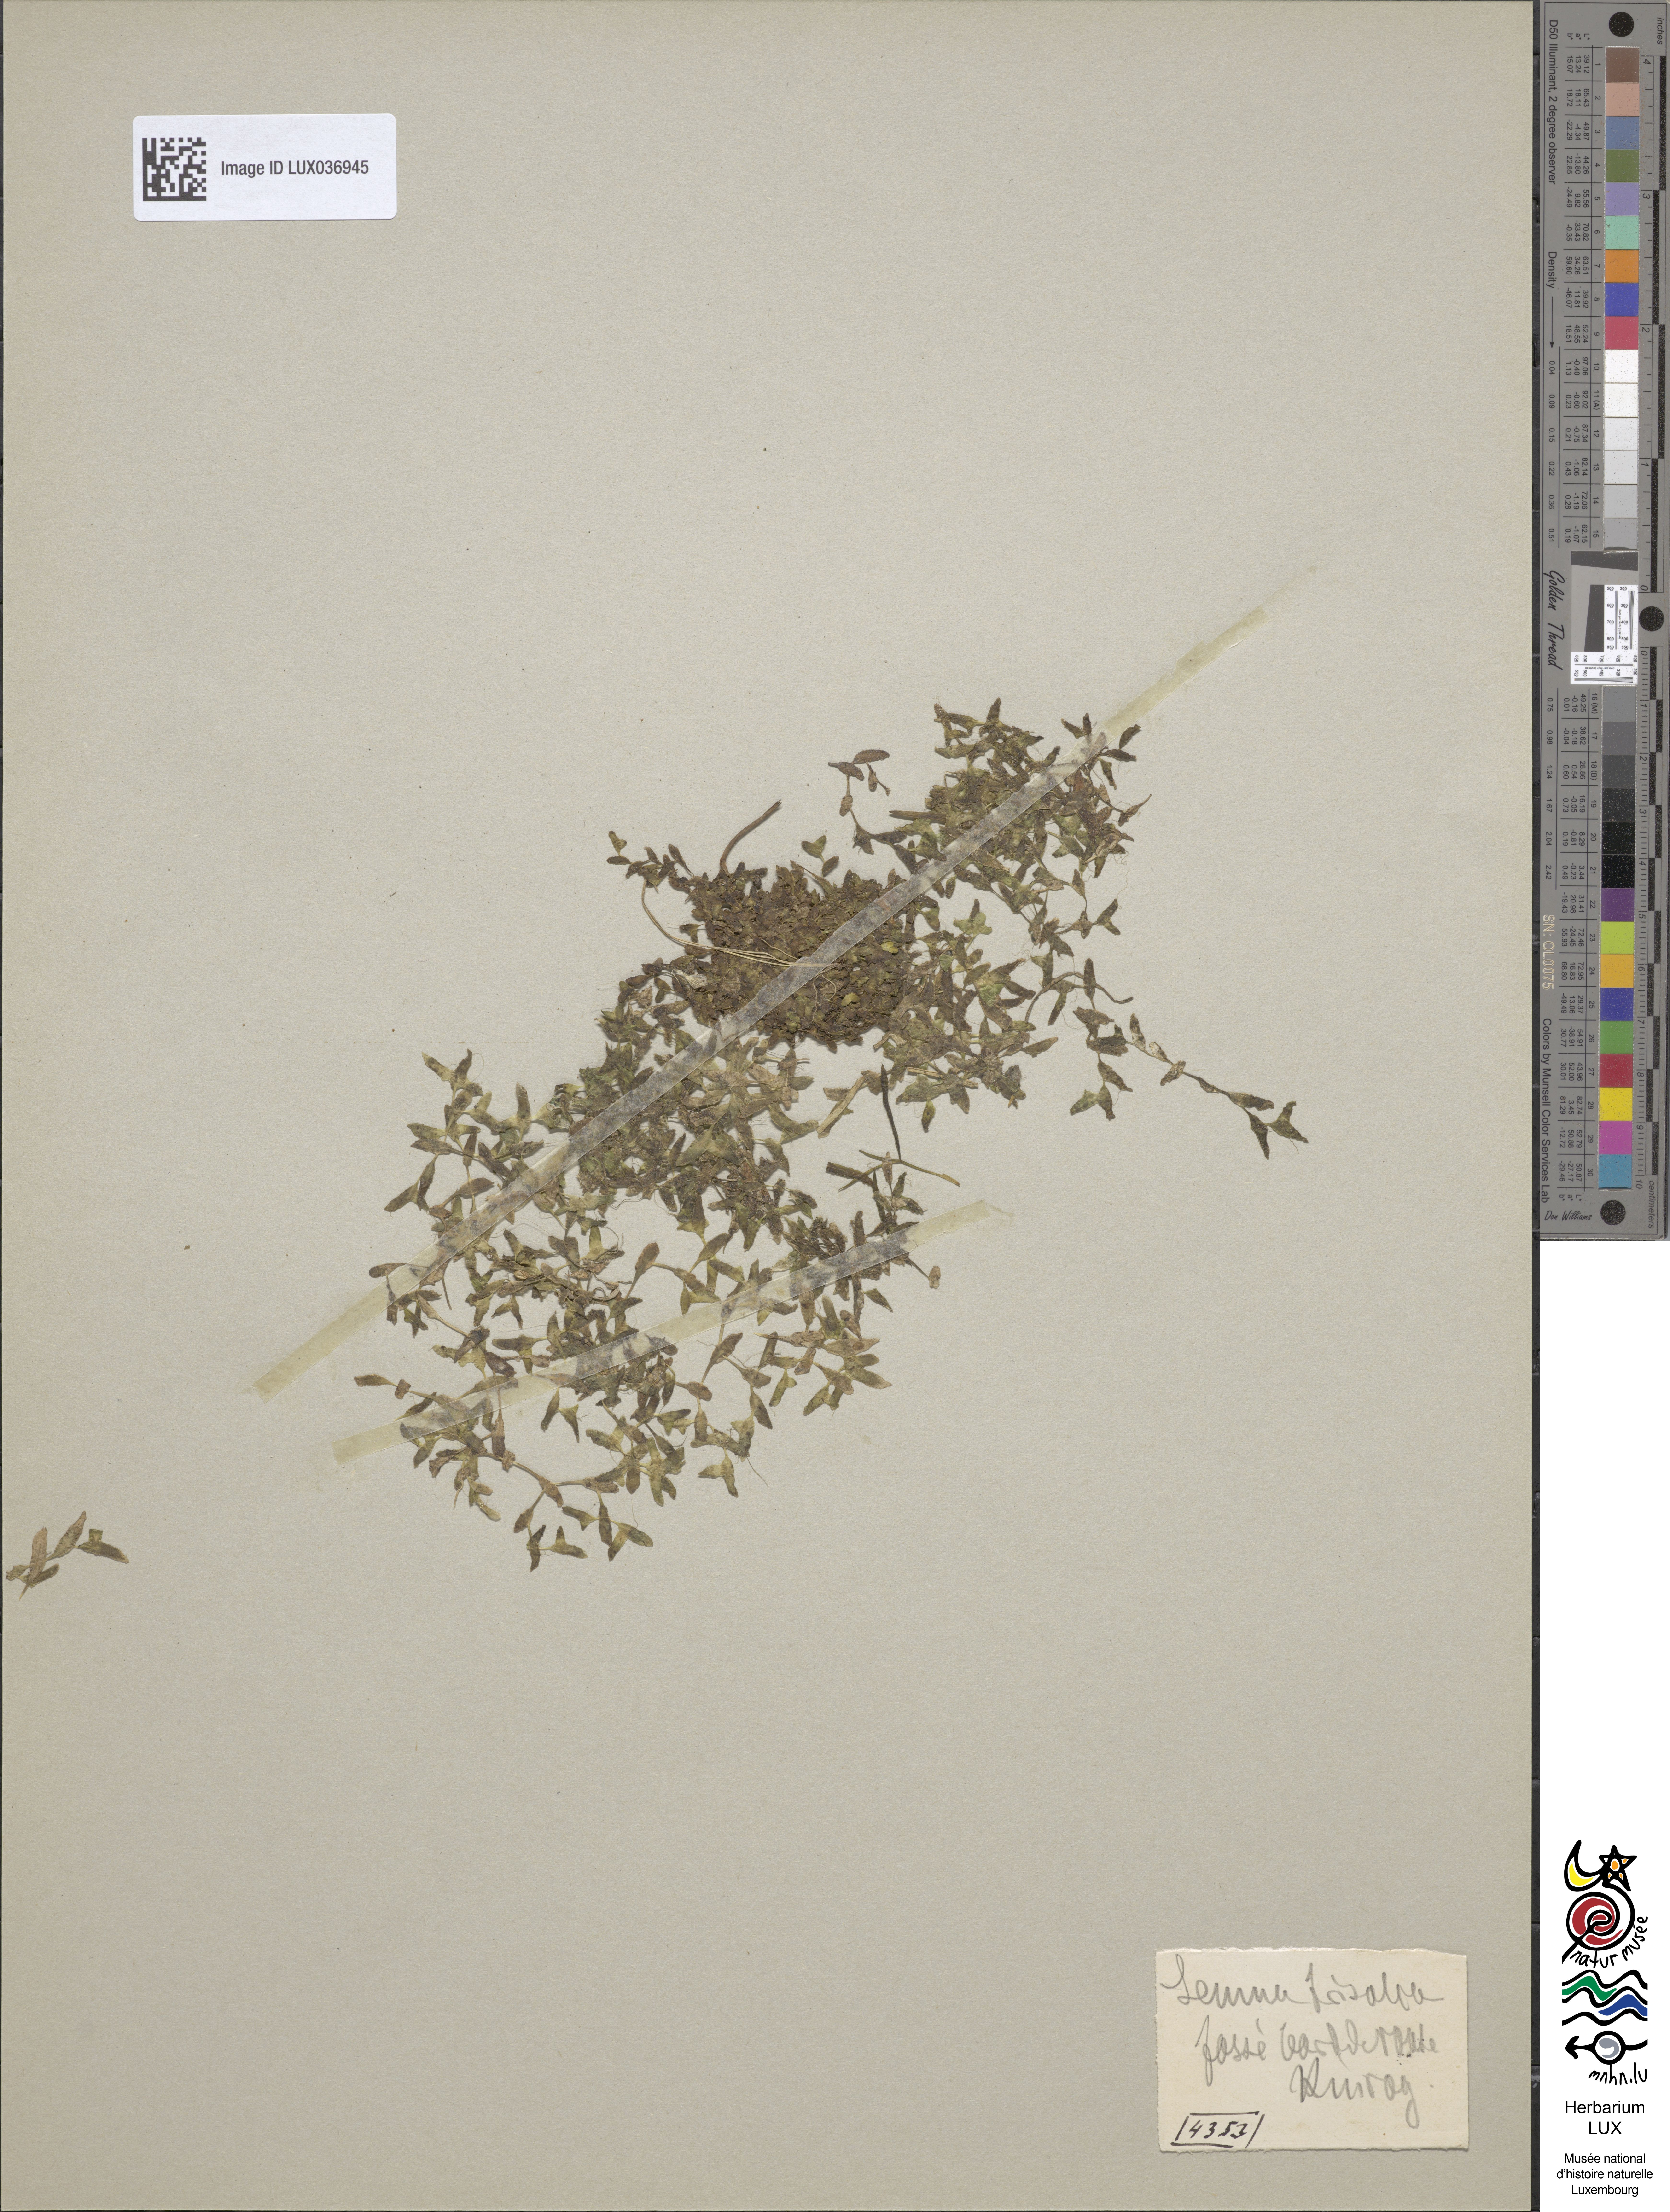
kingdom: Plantae
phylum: Tracheophyta
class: Liliopsida
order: Alismatales
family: Araceae
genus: Lemna
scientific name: Lemna trisulca
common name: Ivy-leaved duckweed
